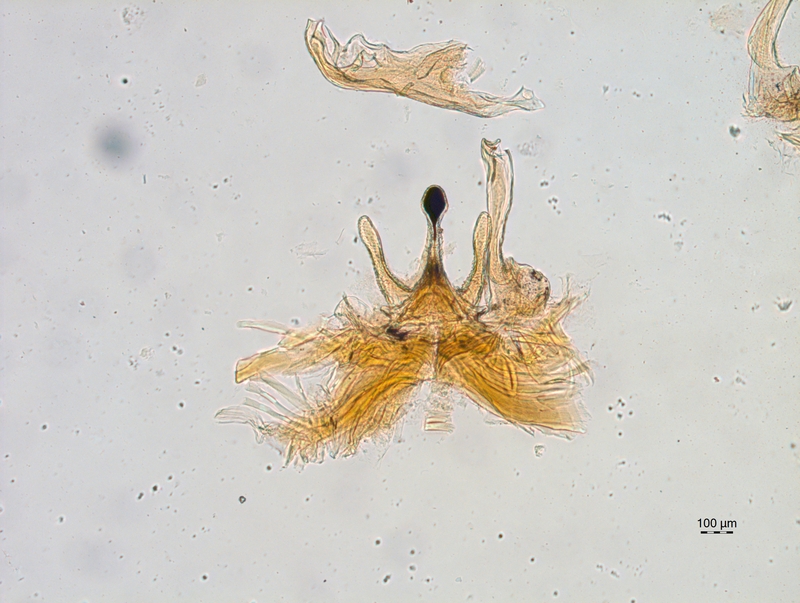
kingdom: Animalia
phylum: Arthropoda
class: Diplopoda
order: Chordeumatida
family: Chordeumatidae
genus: Chordeuma
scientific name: Chordeuma sylvestre
